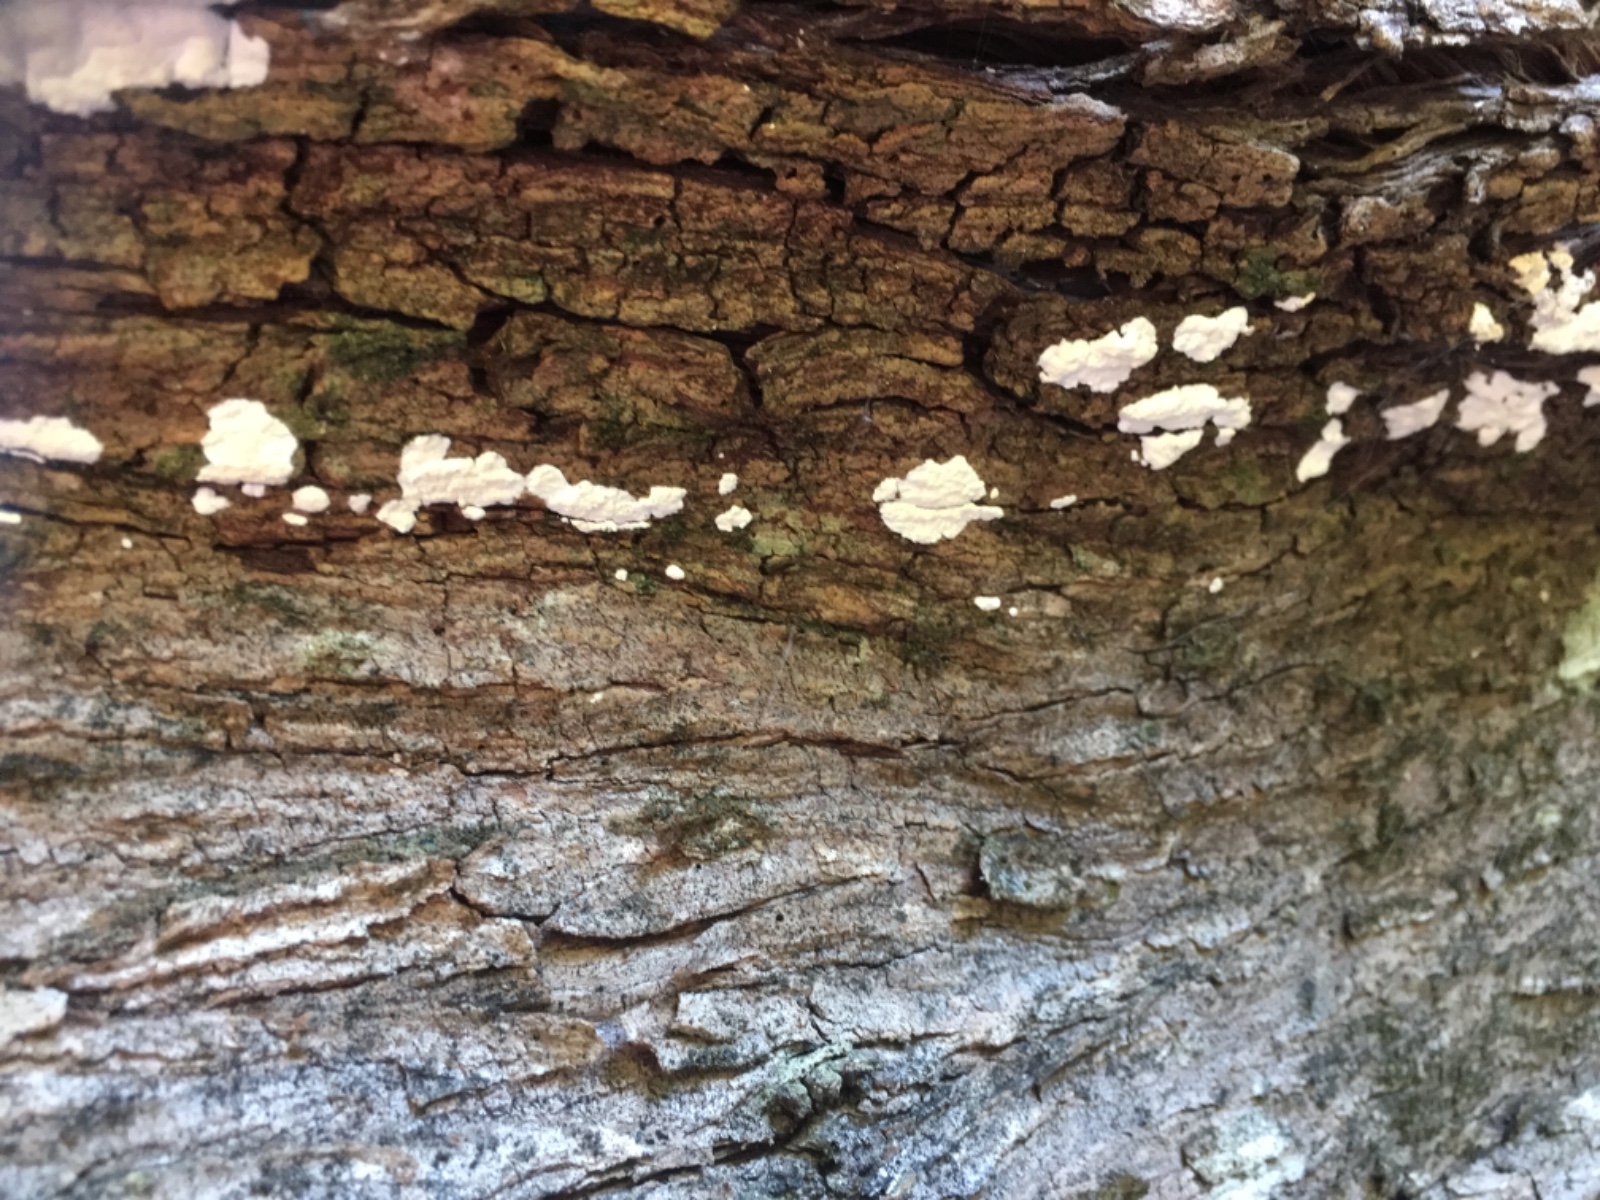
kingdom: Fungi
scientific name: Fungi
